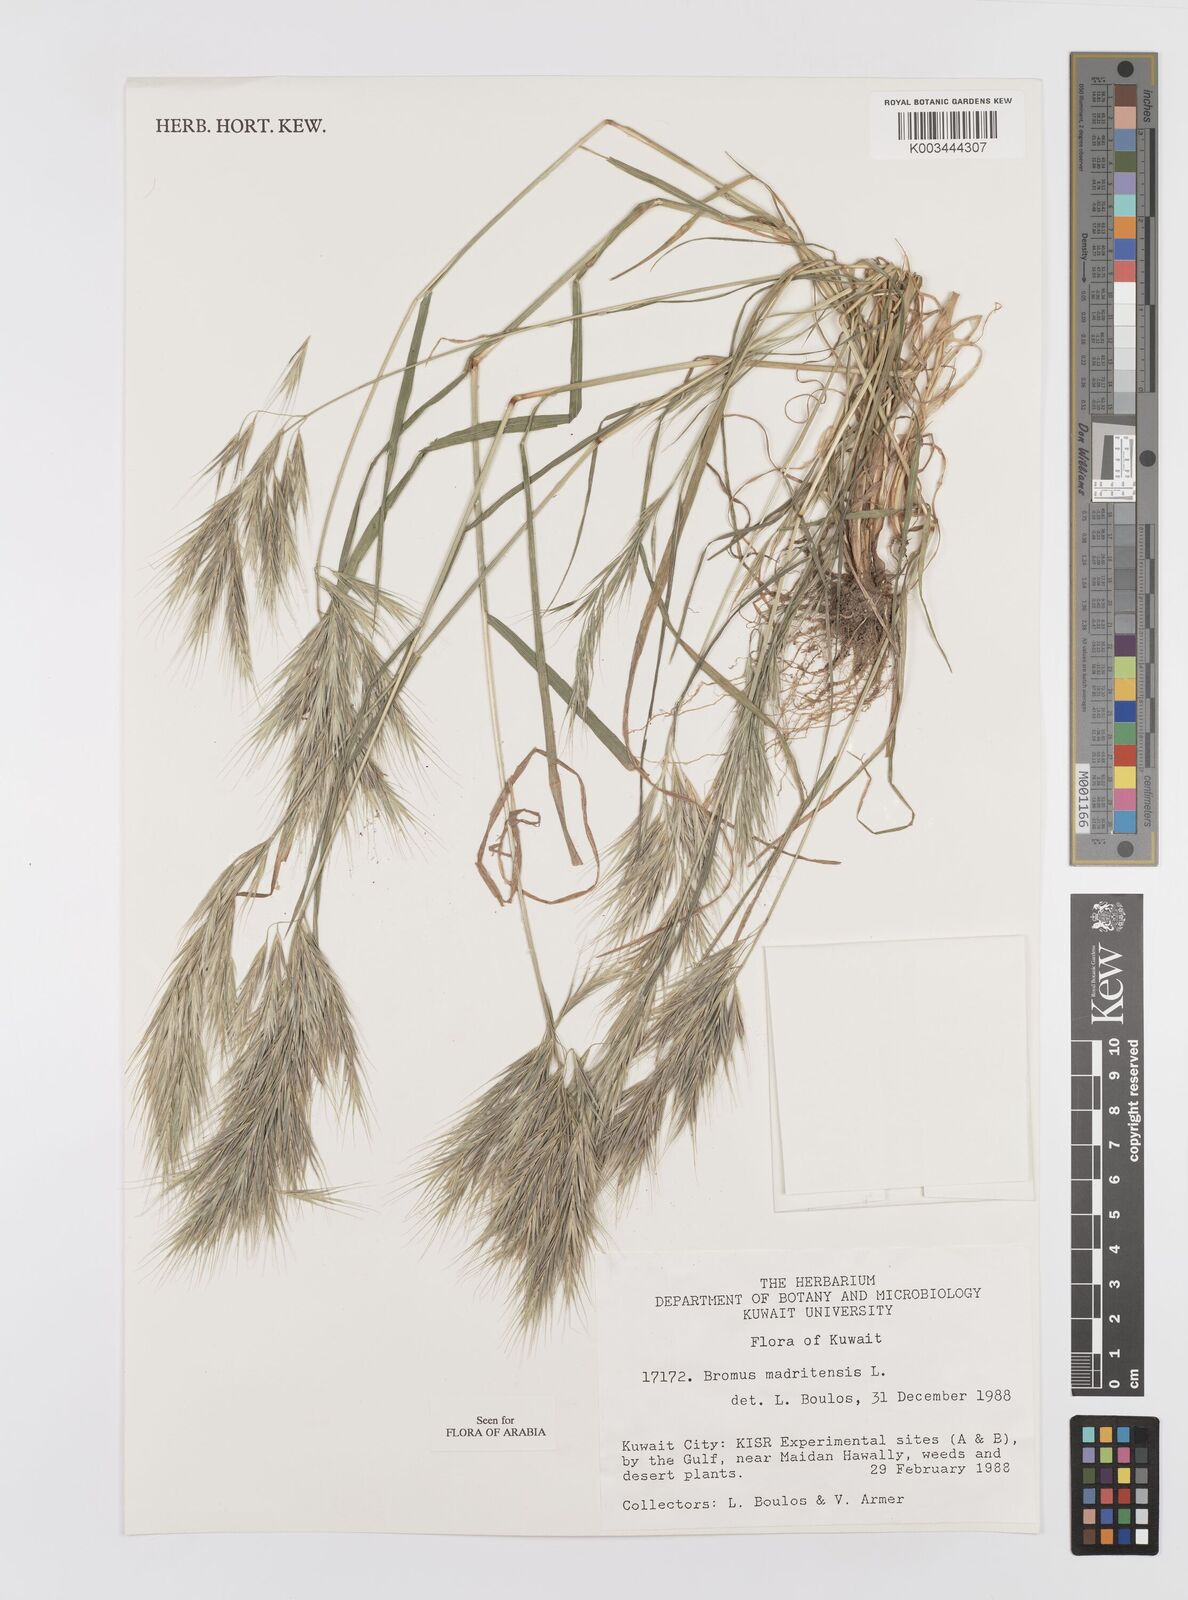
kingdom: Plantae
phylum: Tracheophyta
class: Liliopsida
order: Poales
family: Poaceae
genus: Bromus
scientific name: Bromus madritensis
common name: Compact brome
